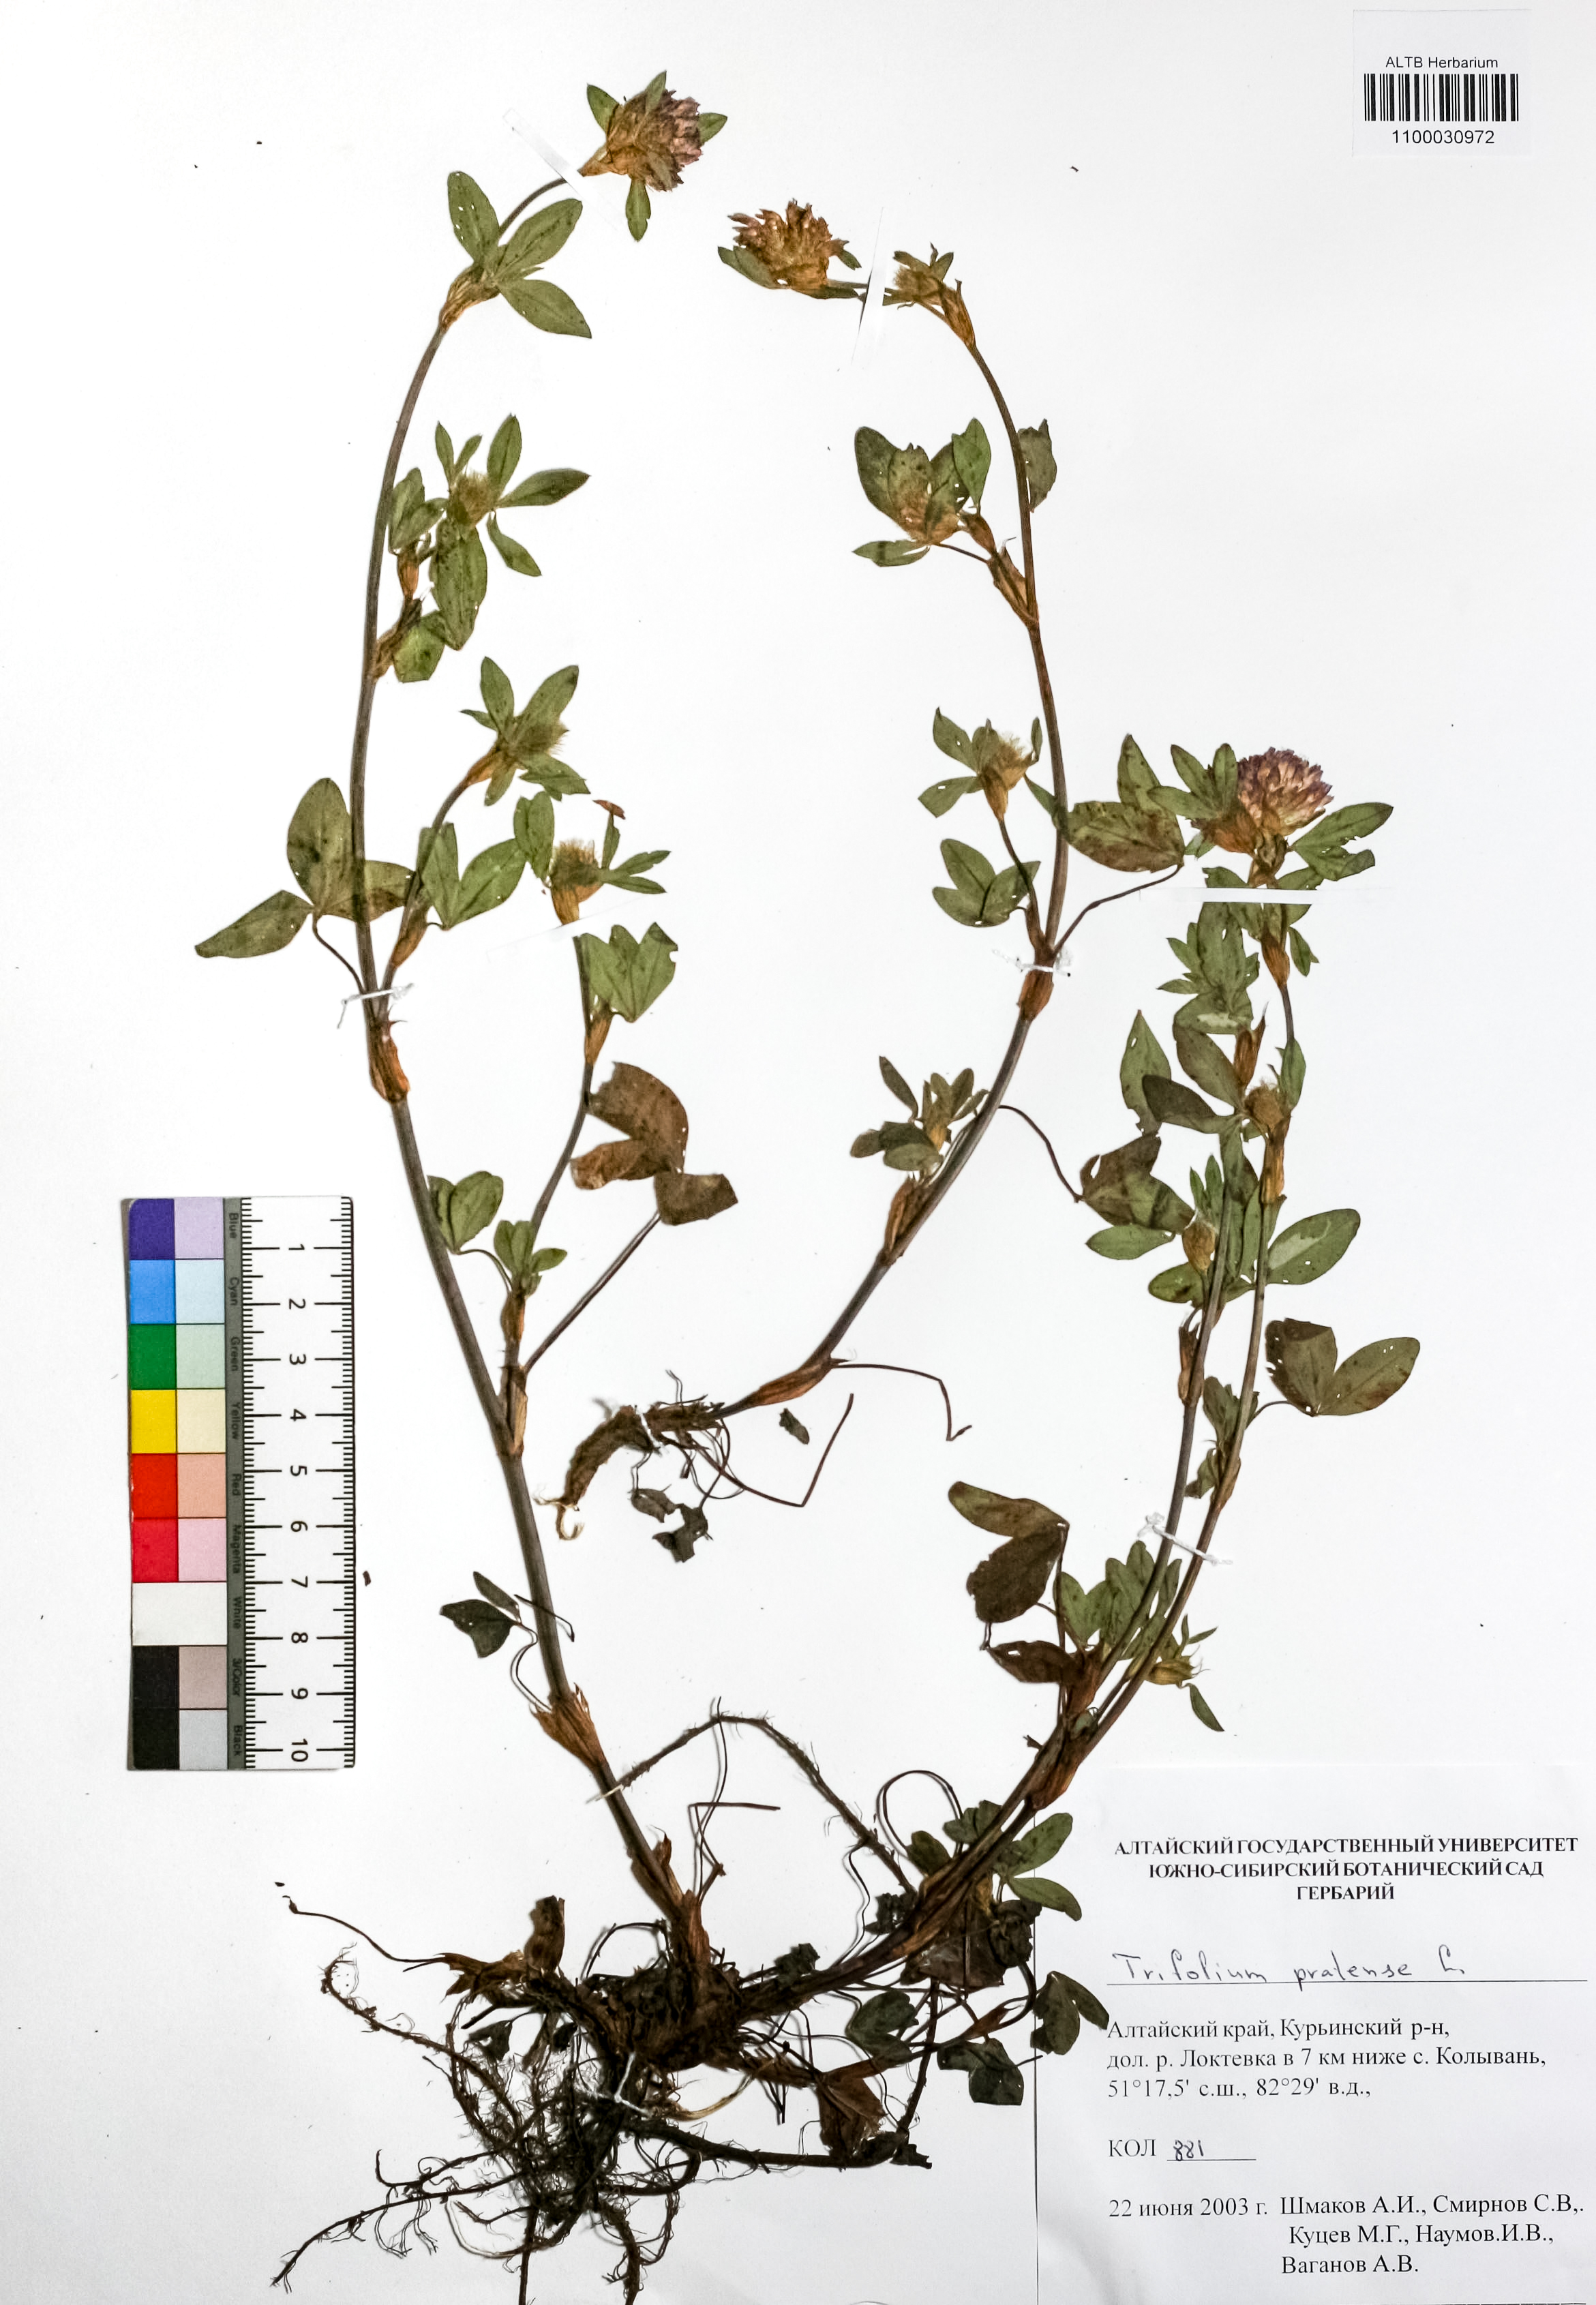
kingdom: Plantae
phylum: Tracheophyta
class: Magnoliopsida
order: Fabales
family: Fabaceae
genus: Trifolium
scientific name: Trifolium pratense
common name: Red clover
